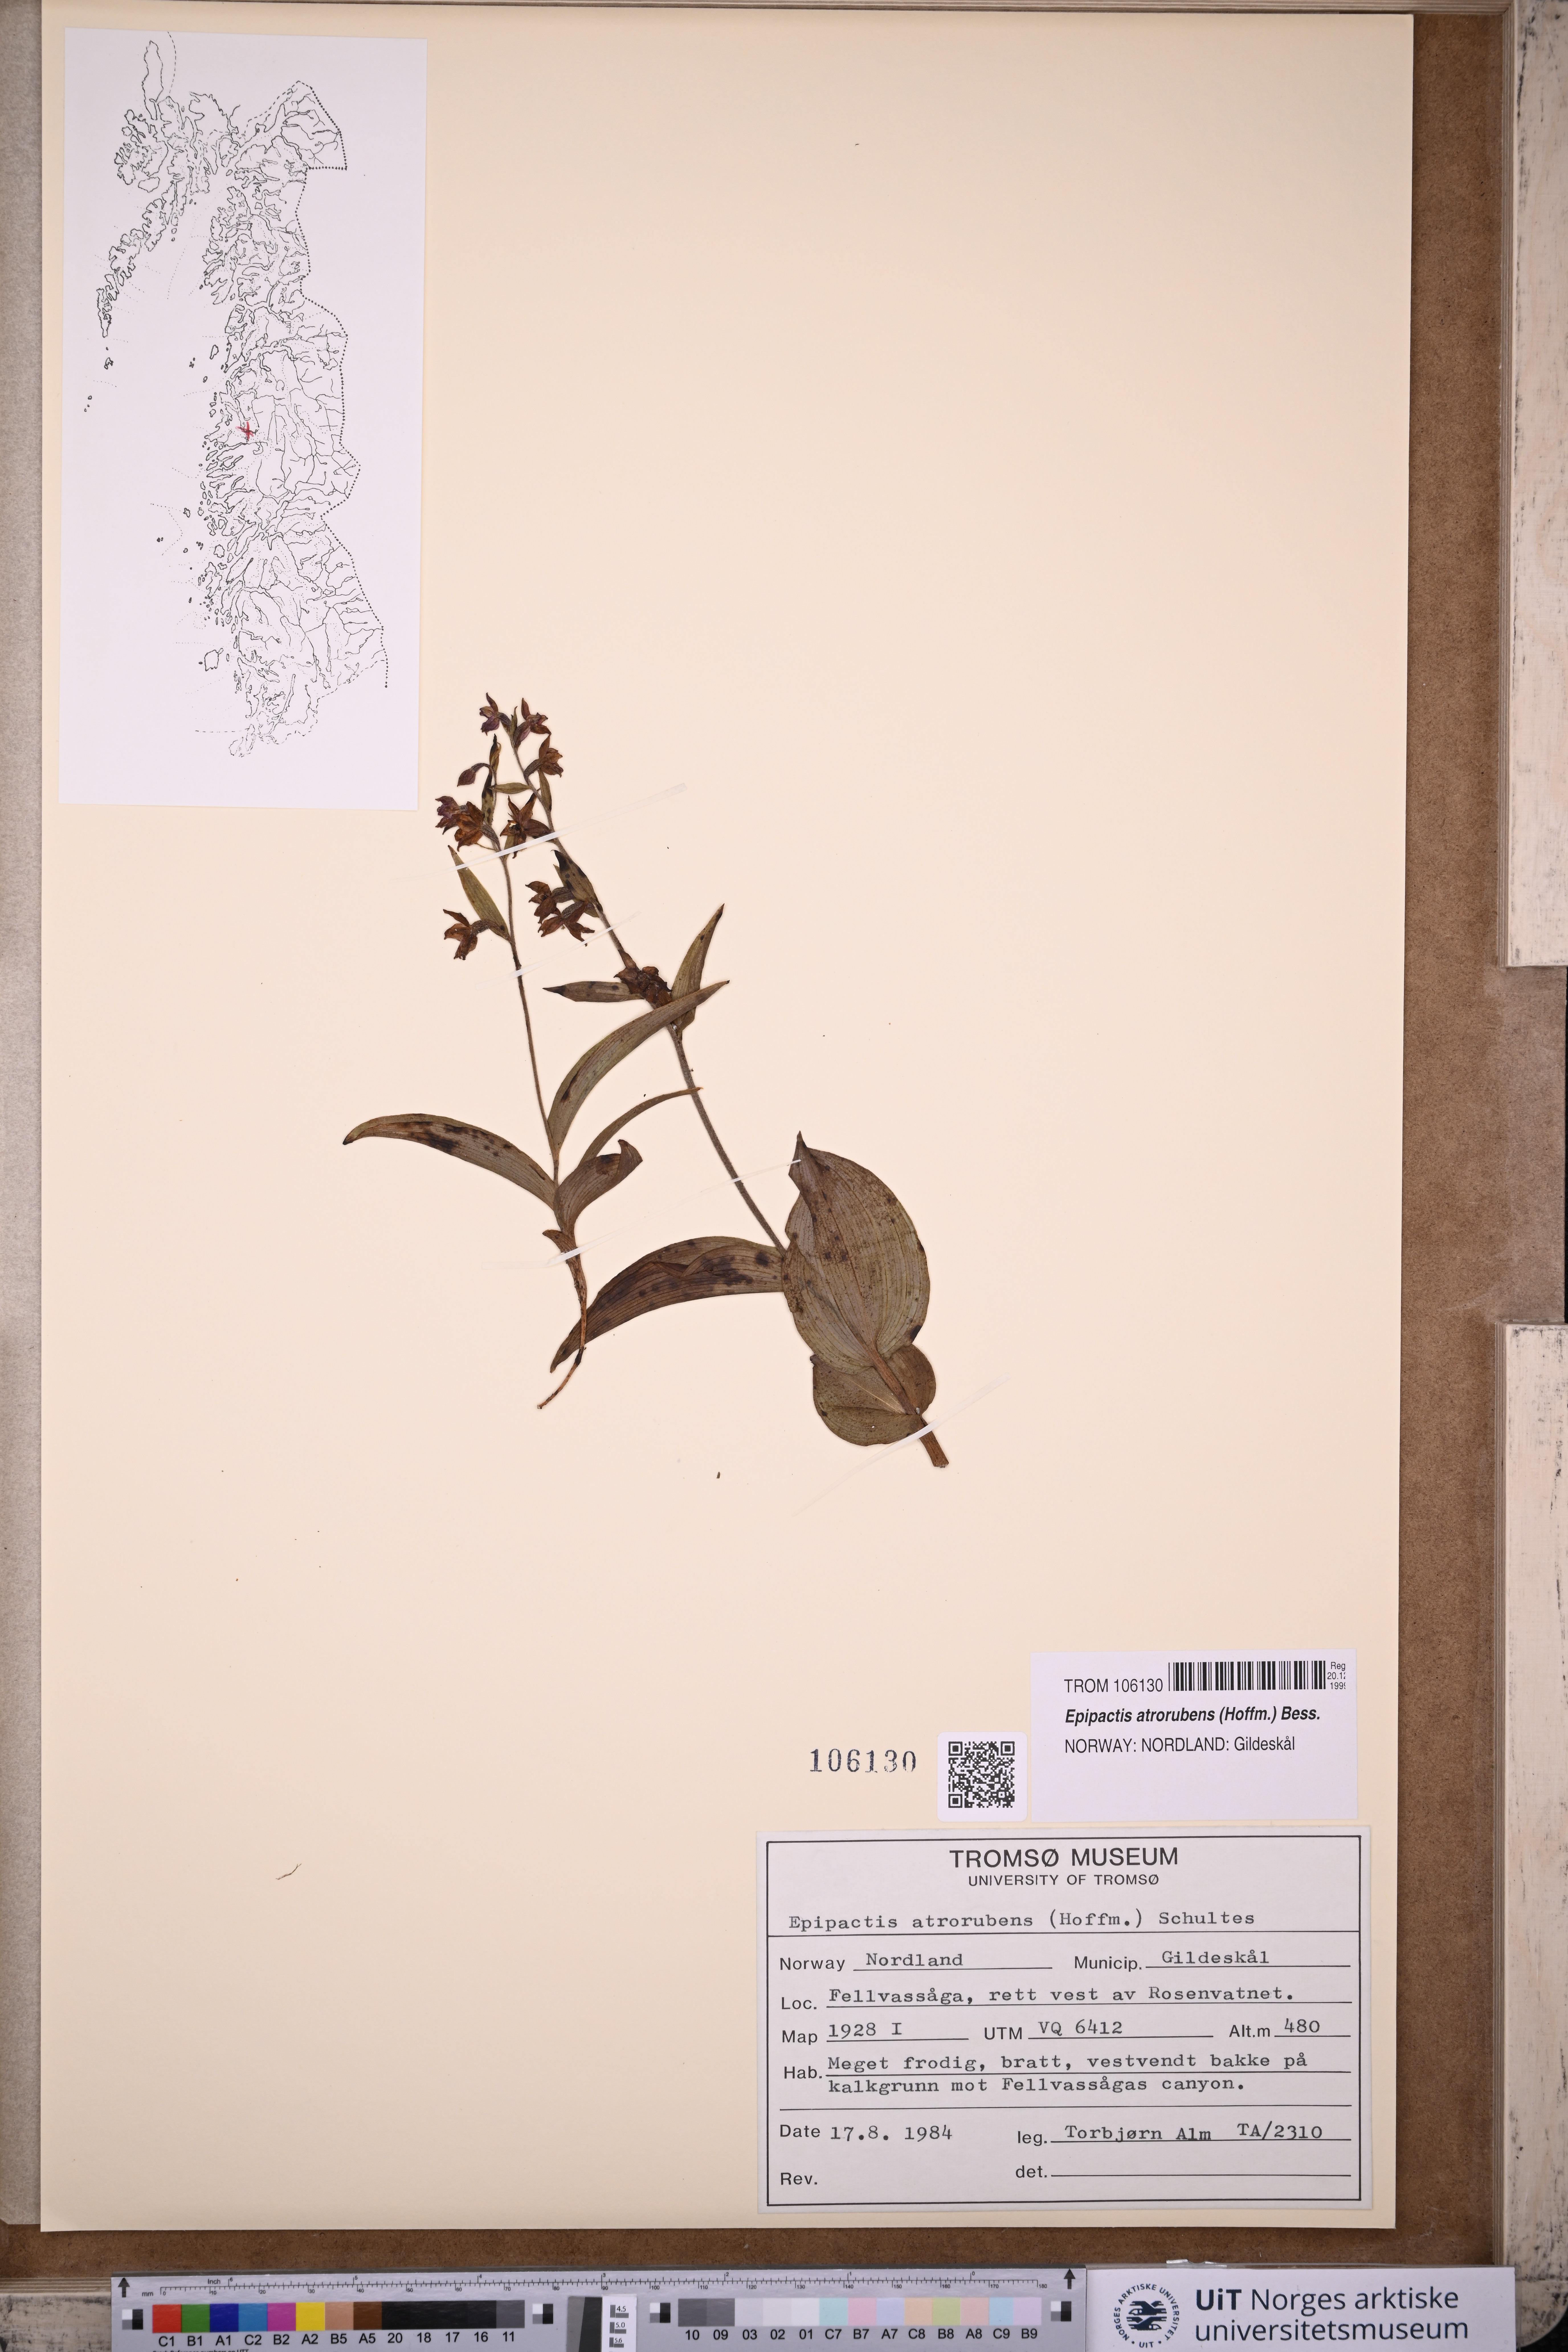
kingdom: Plantae
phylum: Tracheophyta
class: Liliopsida
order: Asparagales
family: Orchidaceae
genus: Epipactis
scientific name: Epipactis atrorubens
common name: Dark-red helleborine
